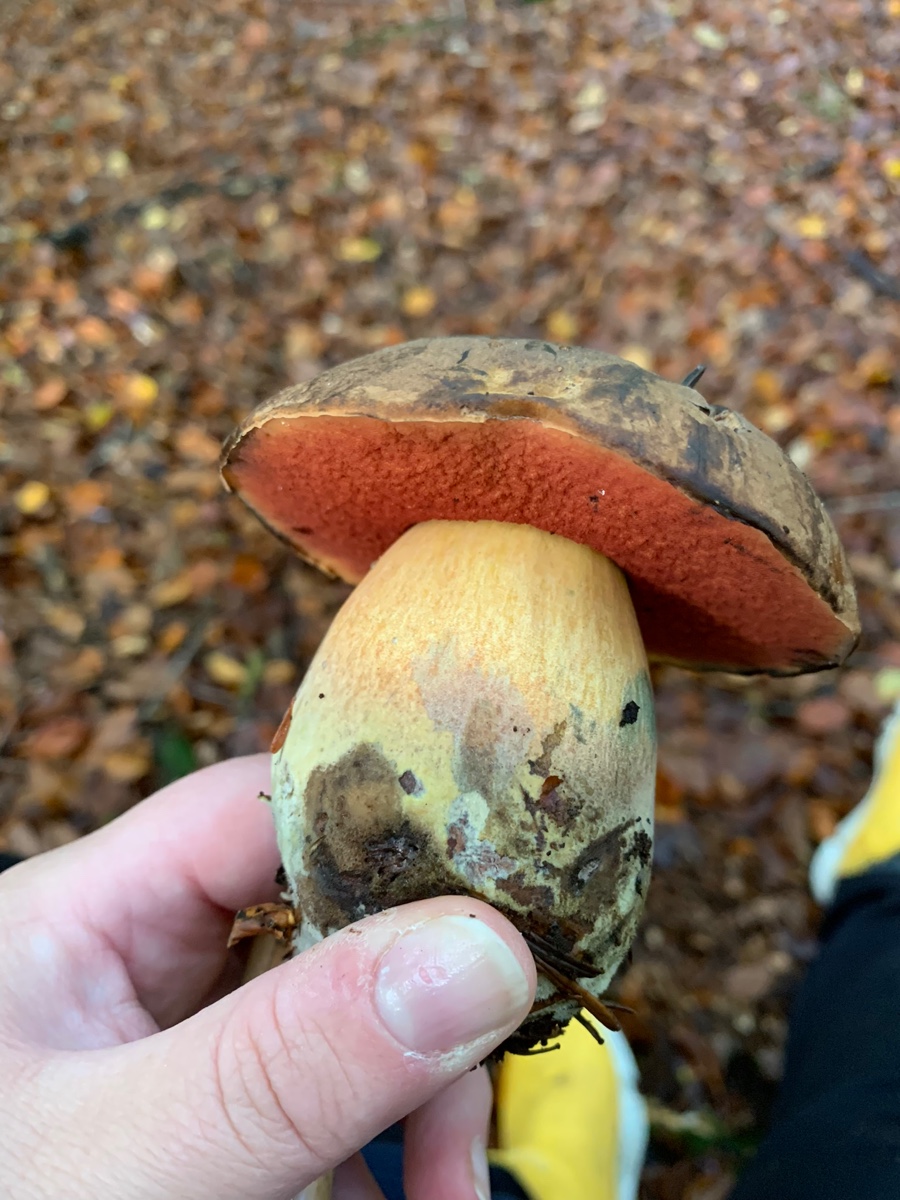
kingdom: Fungi
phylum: Basidiomycota
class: Agaricomycetes
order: Boletales
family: Boletaceae
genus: Neoboletus
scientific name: Neoboletus xanthopus
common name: finprikket indigorørhat
